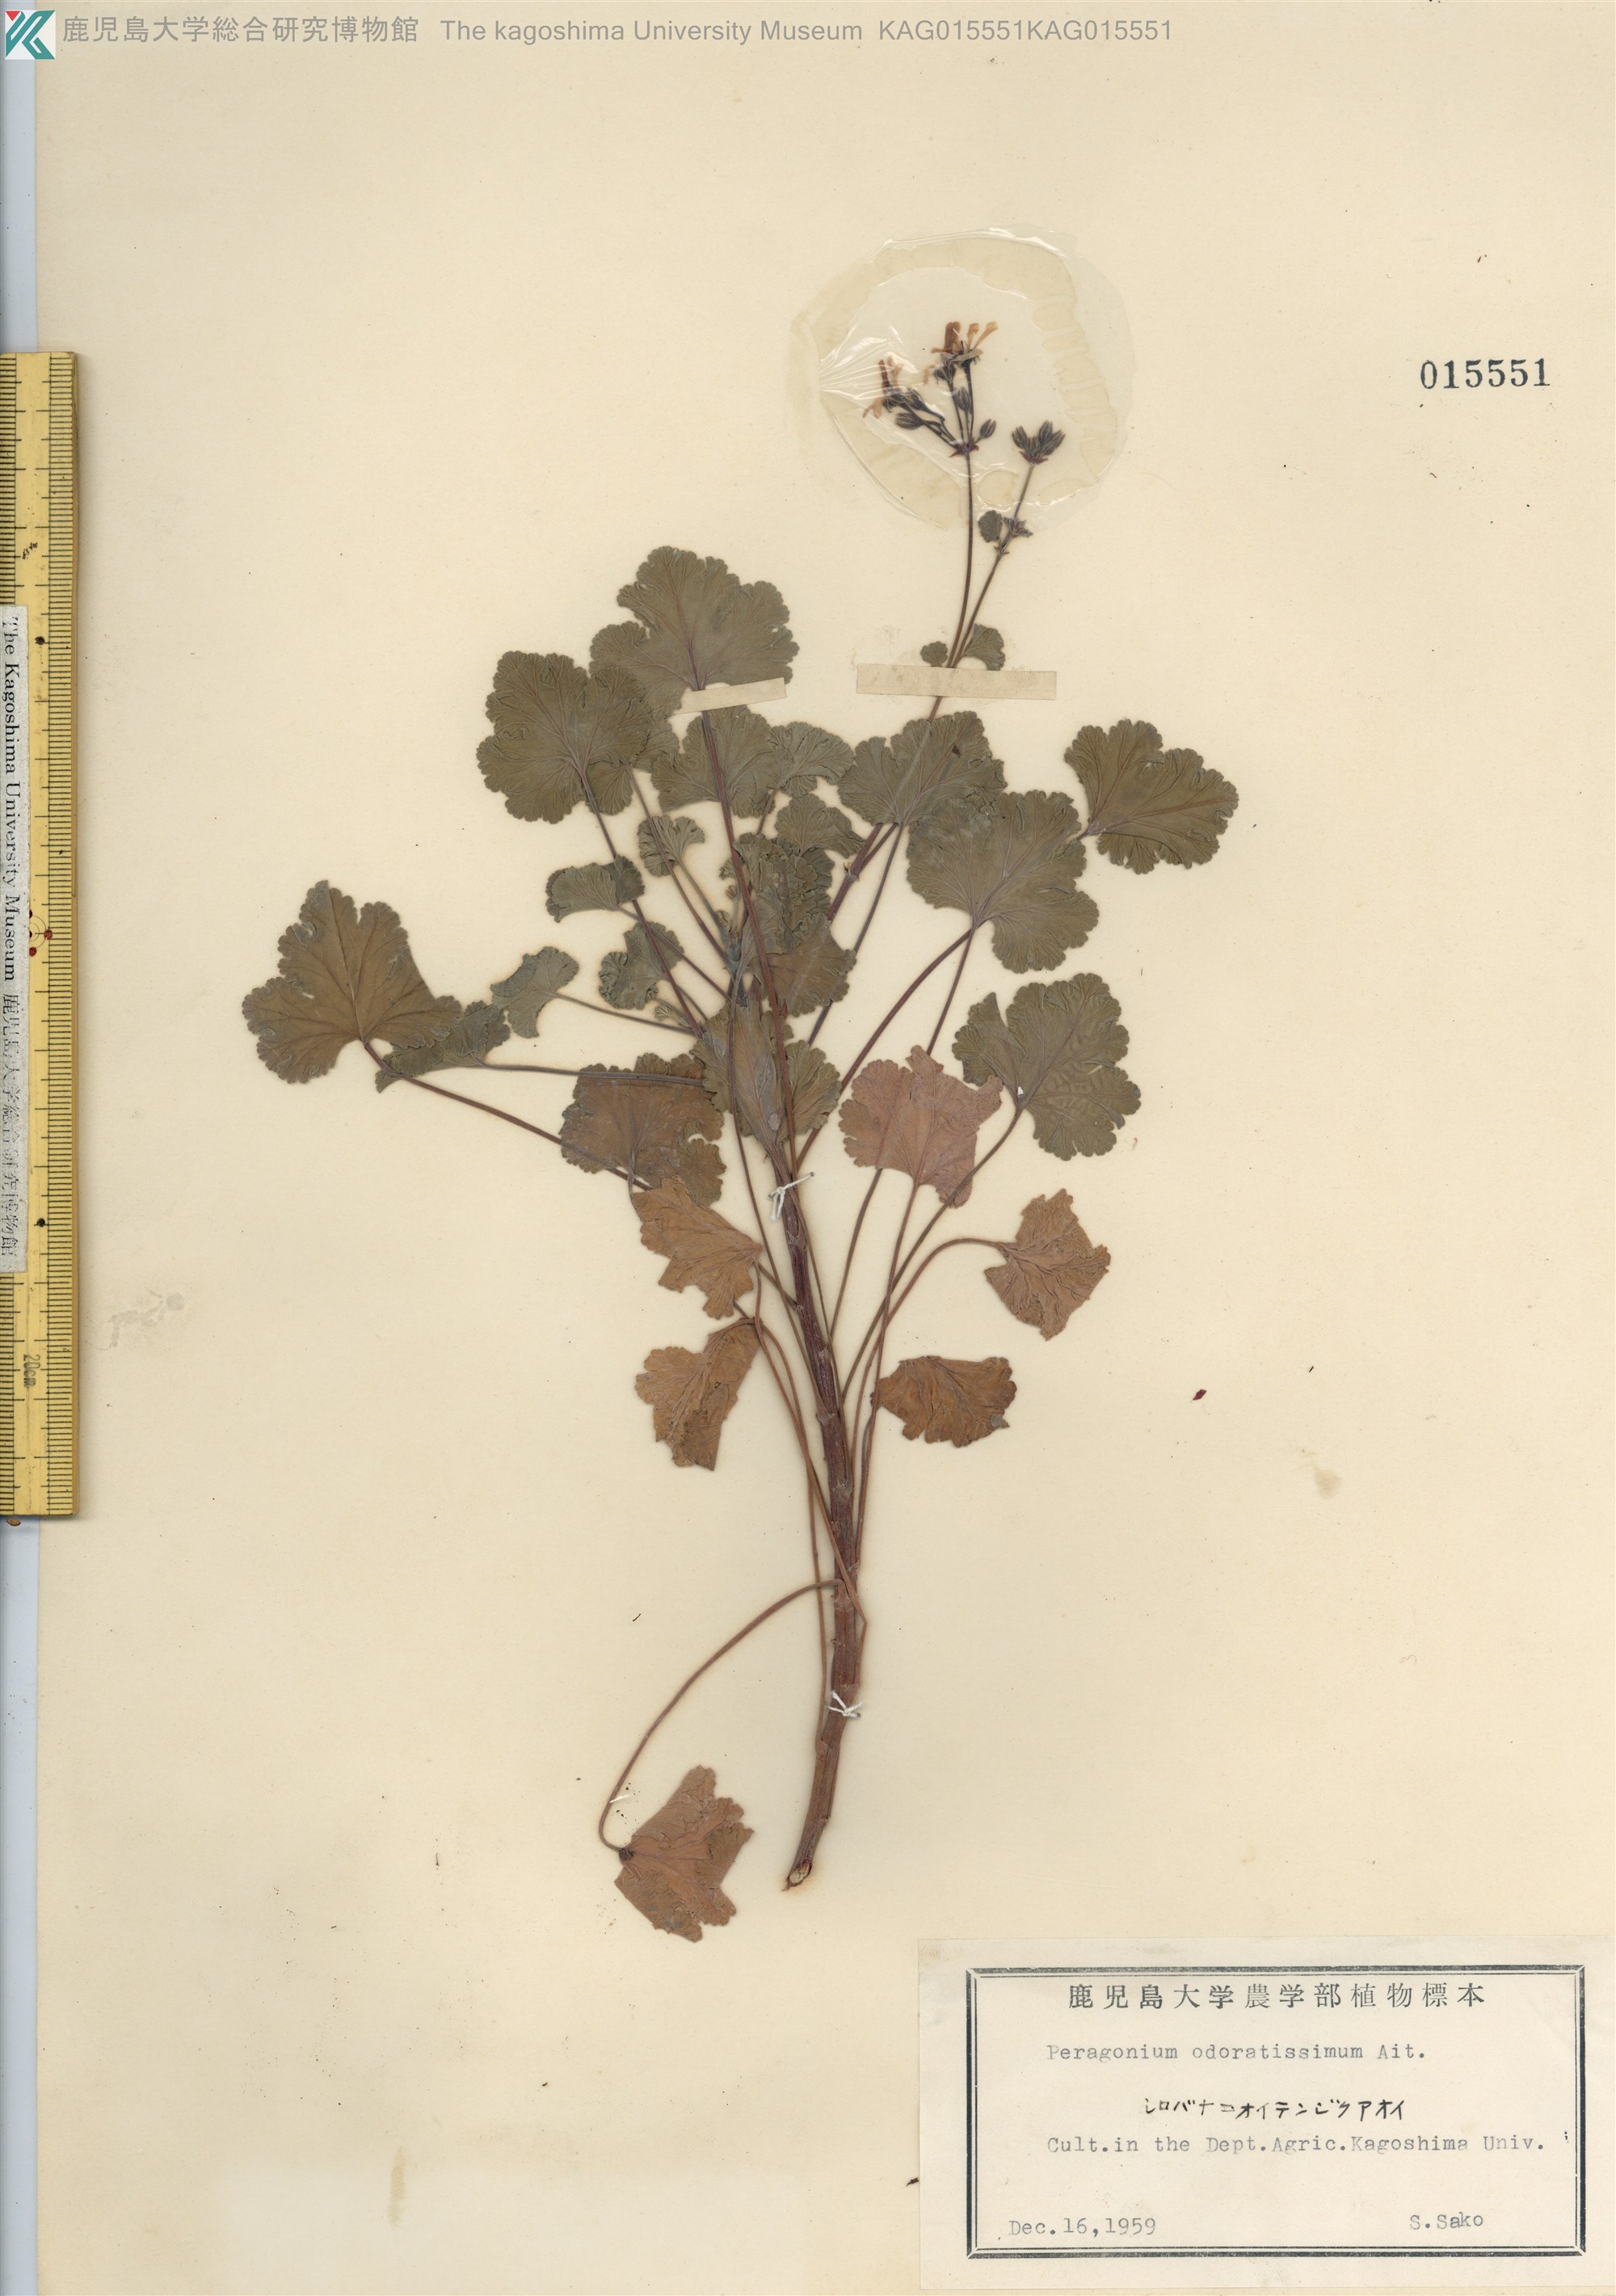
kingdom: Plantae
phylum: Tracheophyta
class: Magnoliopsida
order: Geraniales
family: Geraniaceae
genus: Pelargonium
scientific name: Pelargonium odoratissimum
